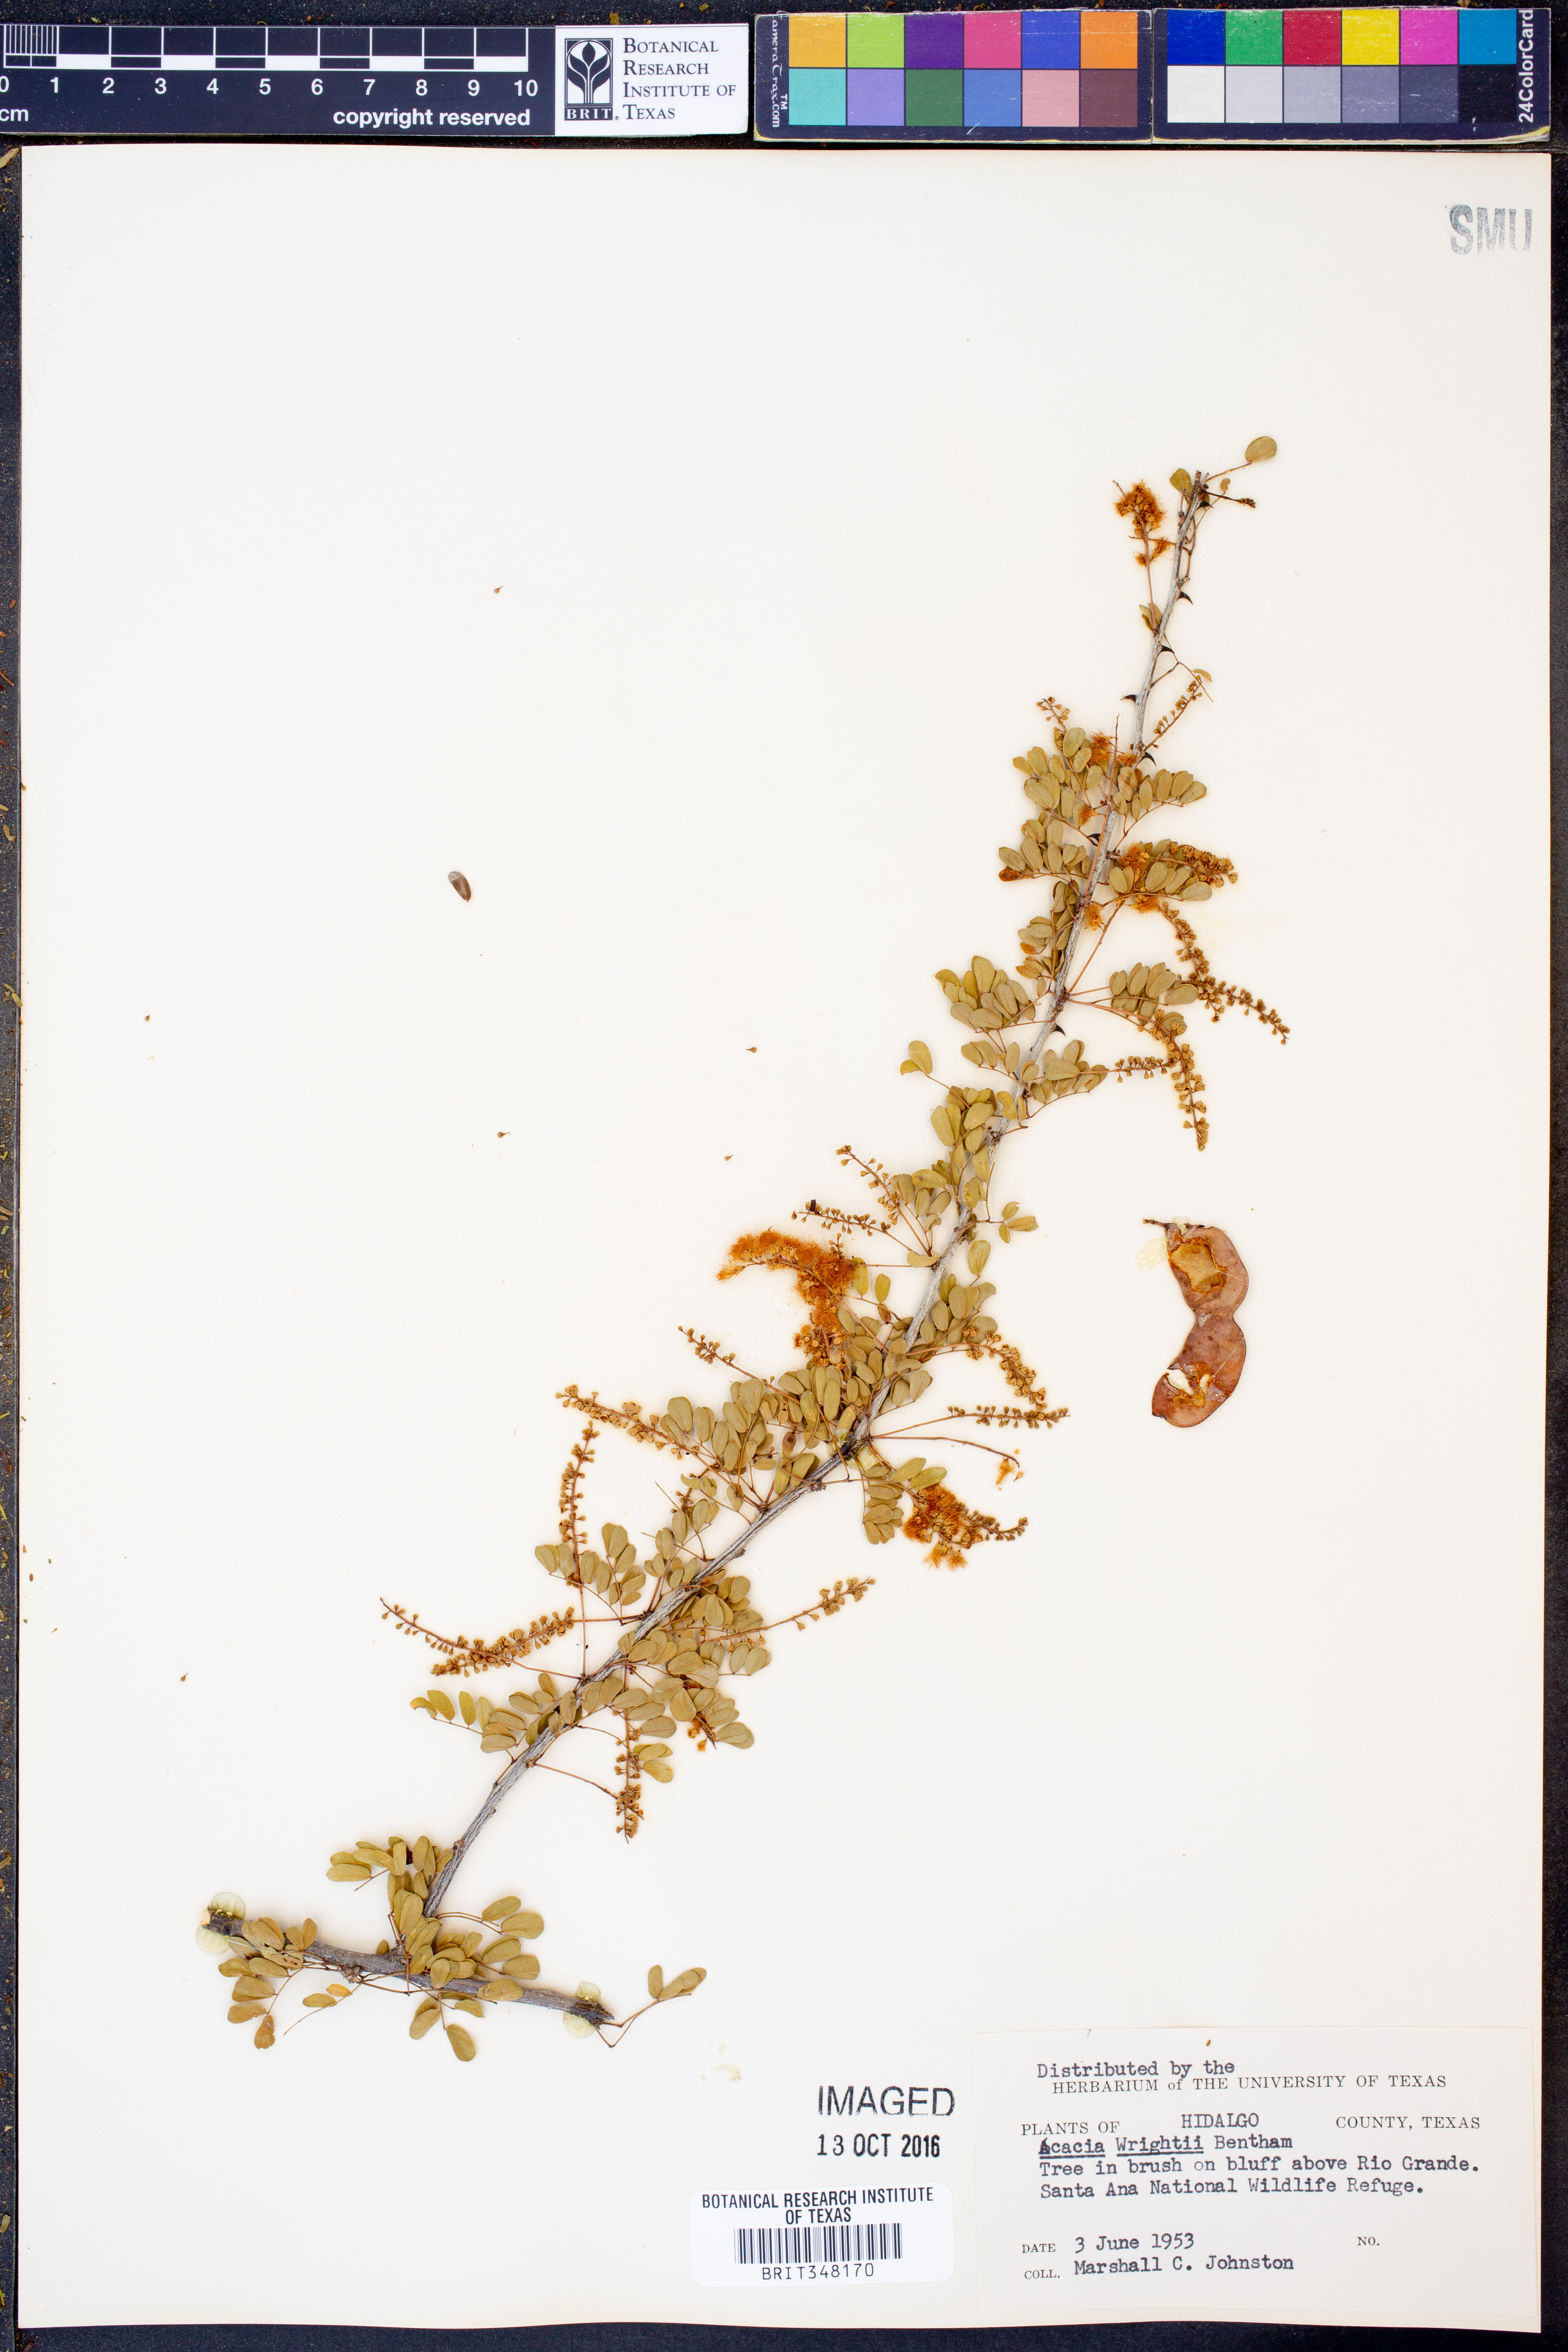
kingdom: Plantae
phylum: Tracheophyta
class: Magnoliopsida
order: Fabales
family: Fabaceae
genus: Senegalia
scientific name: Senegalia wrightii
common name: Texas cat's-claw
